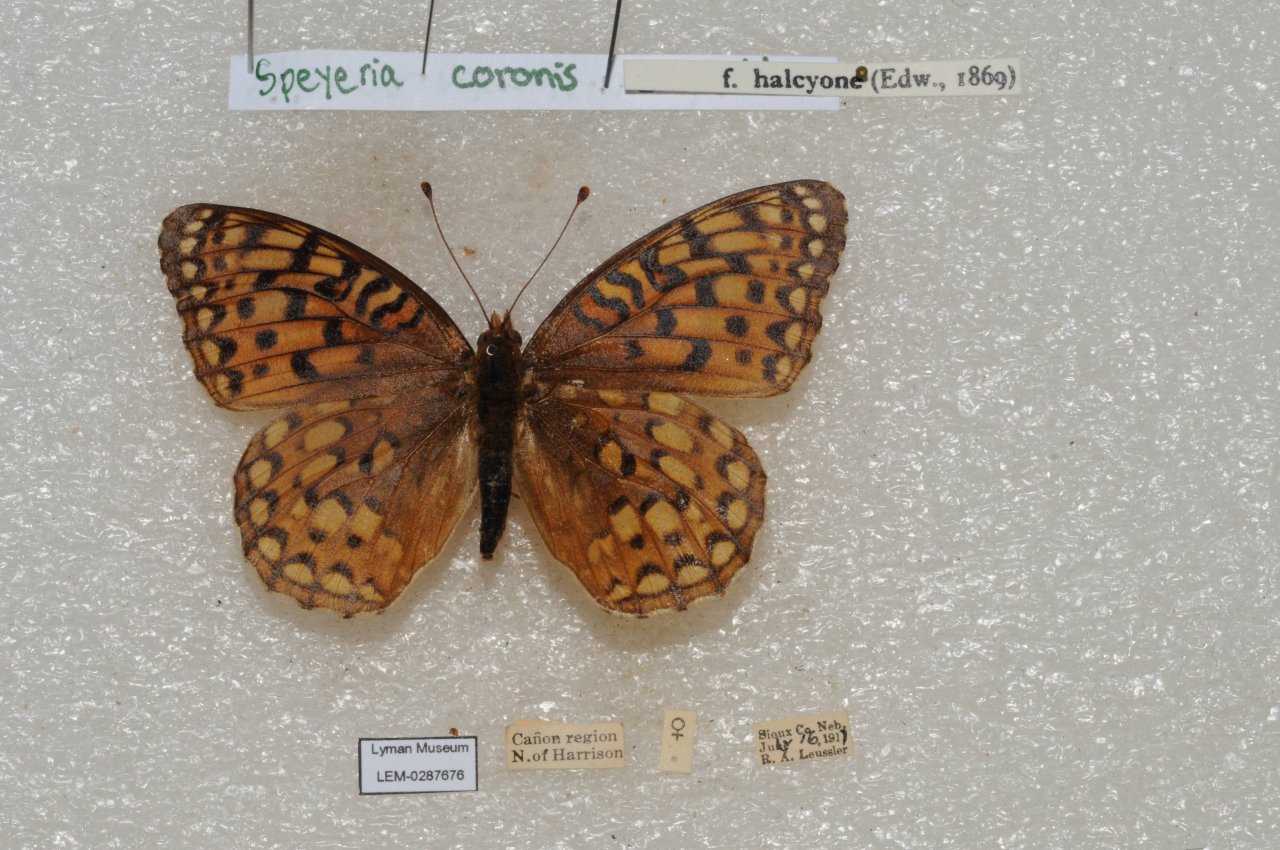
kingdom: Animalia
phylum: Arthropoda
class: Insecta
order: Lepidoptera
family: Nymphalidae
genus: Speyeria
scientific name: Speyeria coronis
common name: Coronis Fritillary
